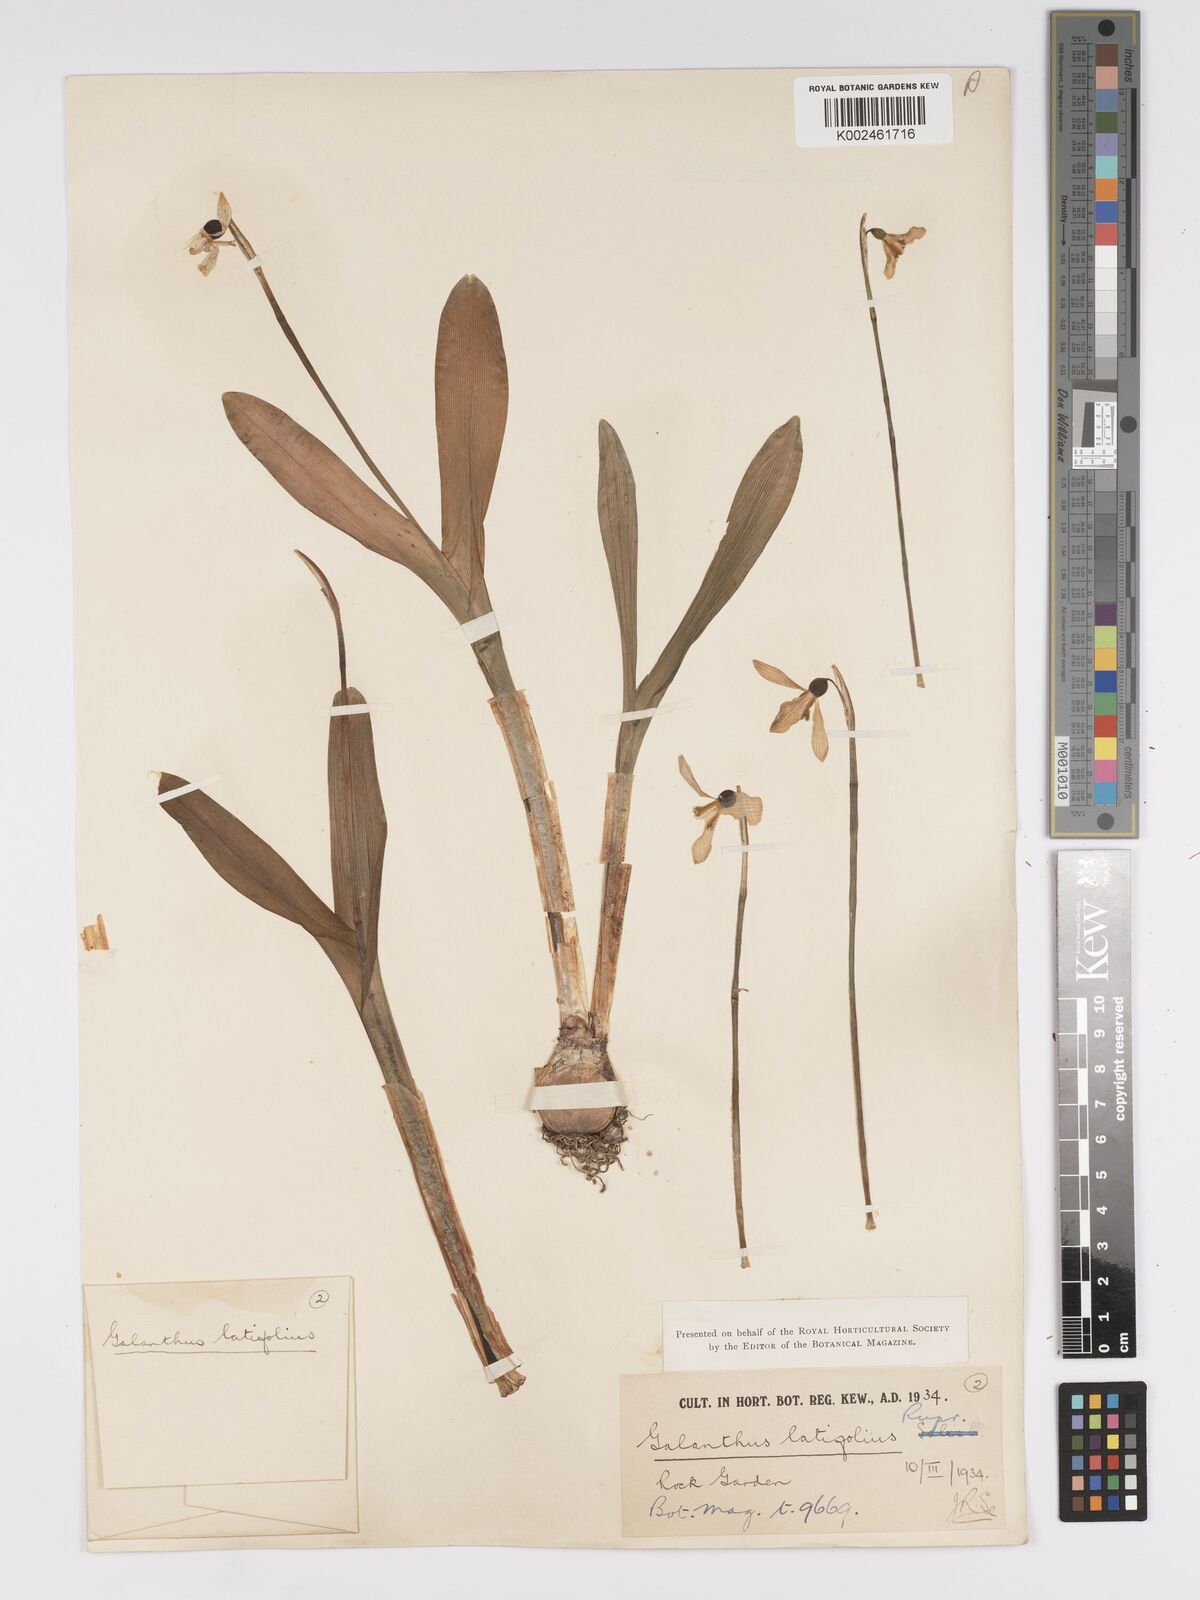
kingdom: Plantae
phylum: Tracheophyta
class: Liliopsida
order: Asparagales
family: Amaryllidaceae
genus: Galanthus
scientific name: Galanthus platyphyllus
